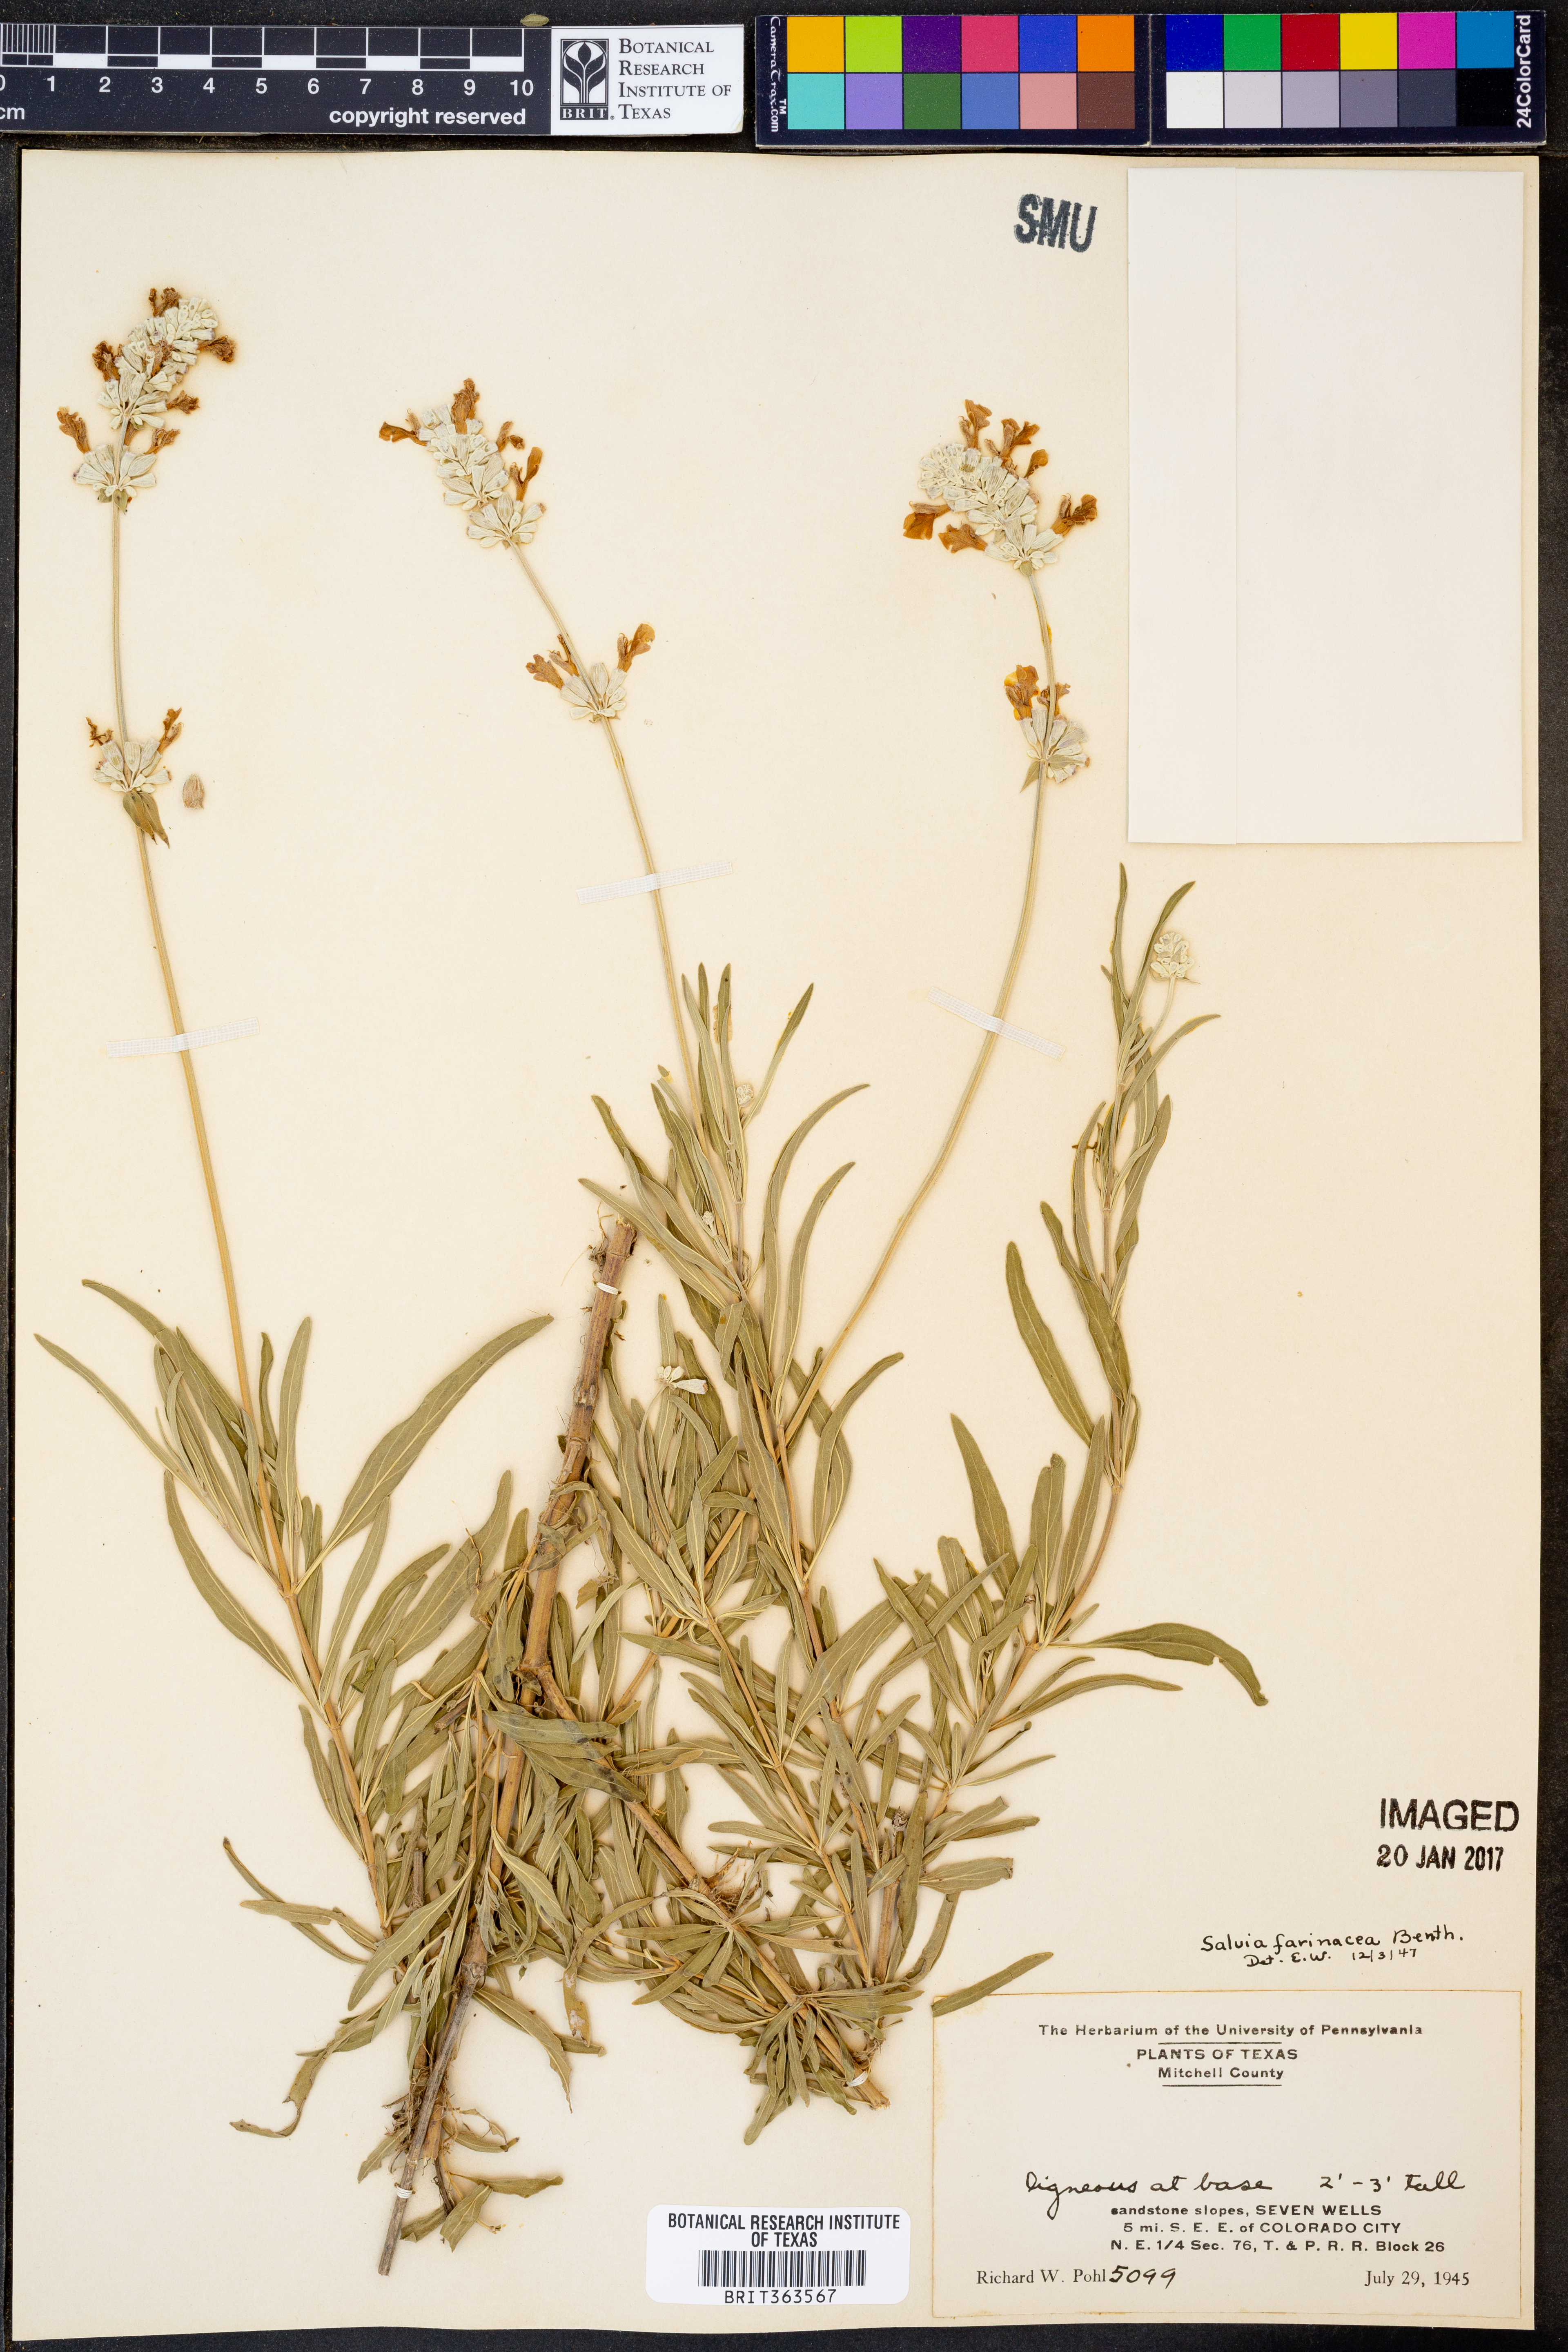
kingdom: Plantae
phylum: Tracheophyta
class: Magnoliopsida
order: Lamiales
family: Lamiaceae
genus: Salvia
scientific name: Salvia farinacea
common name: Mealy sage
